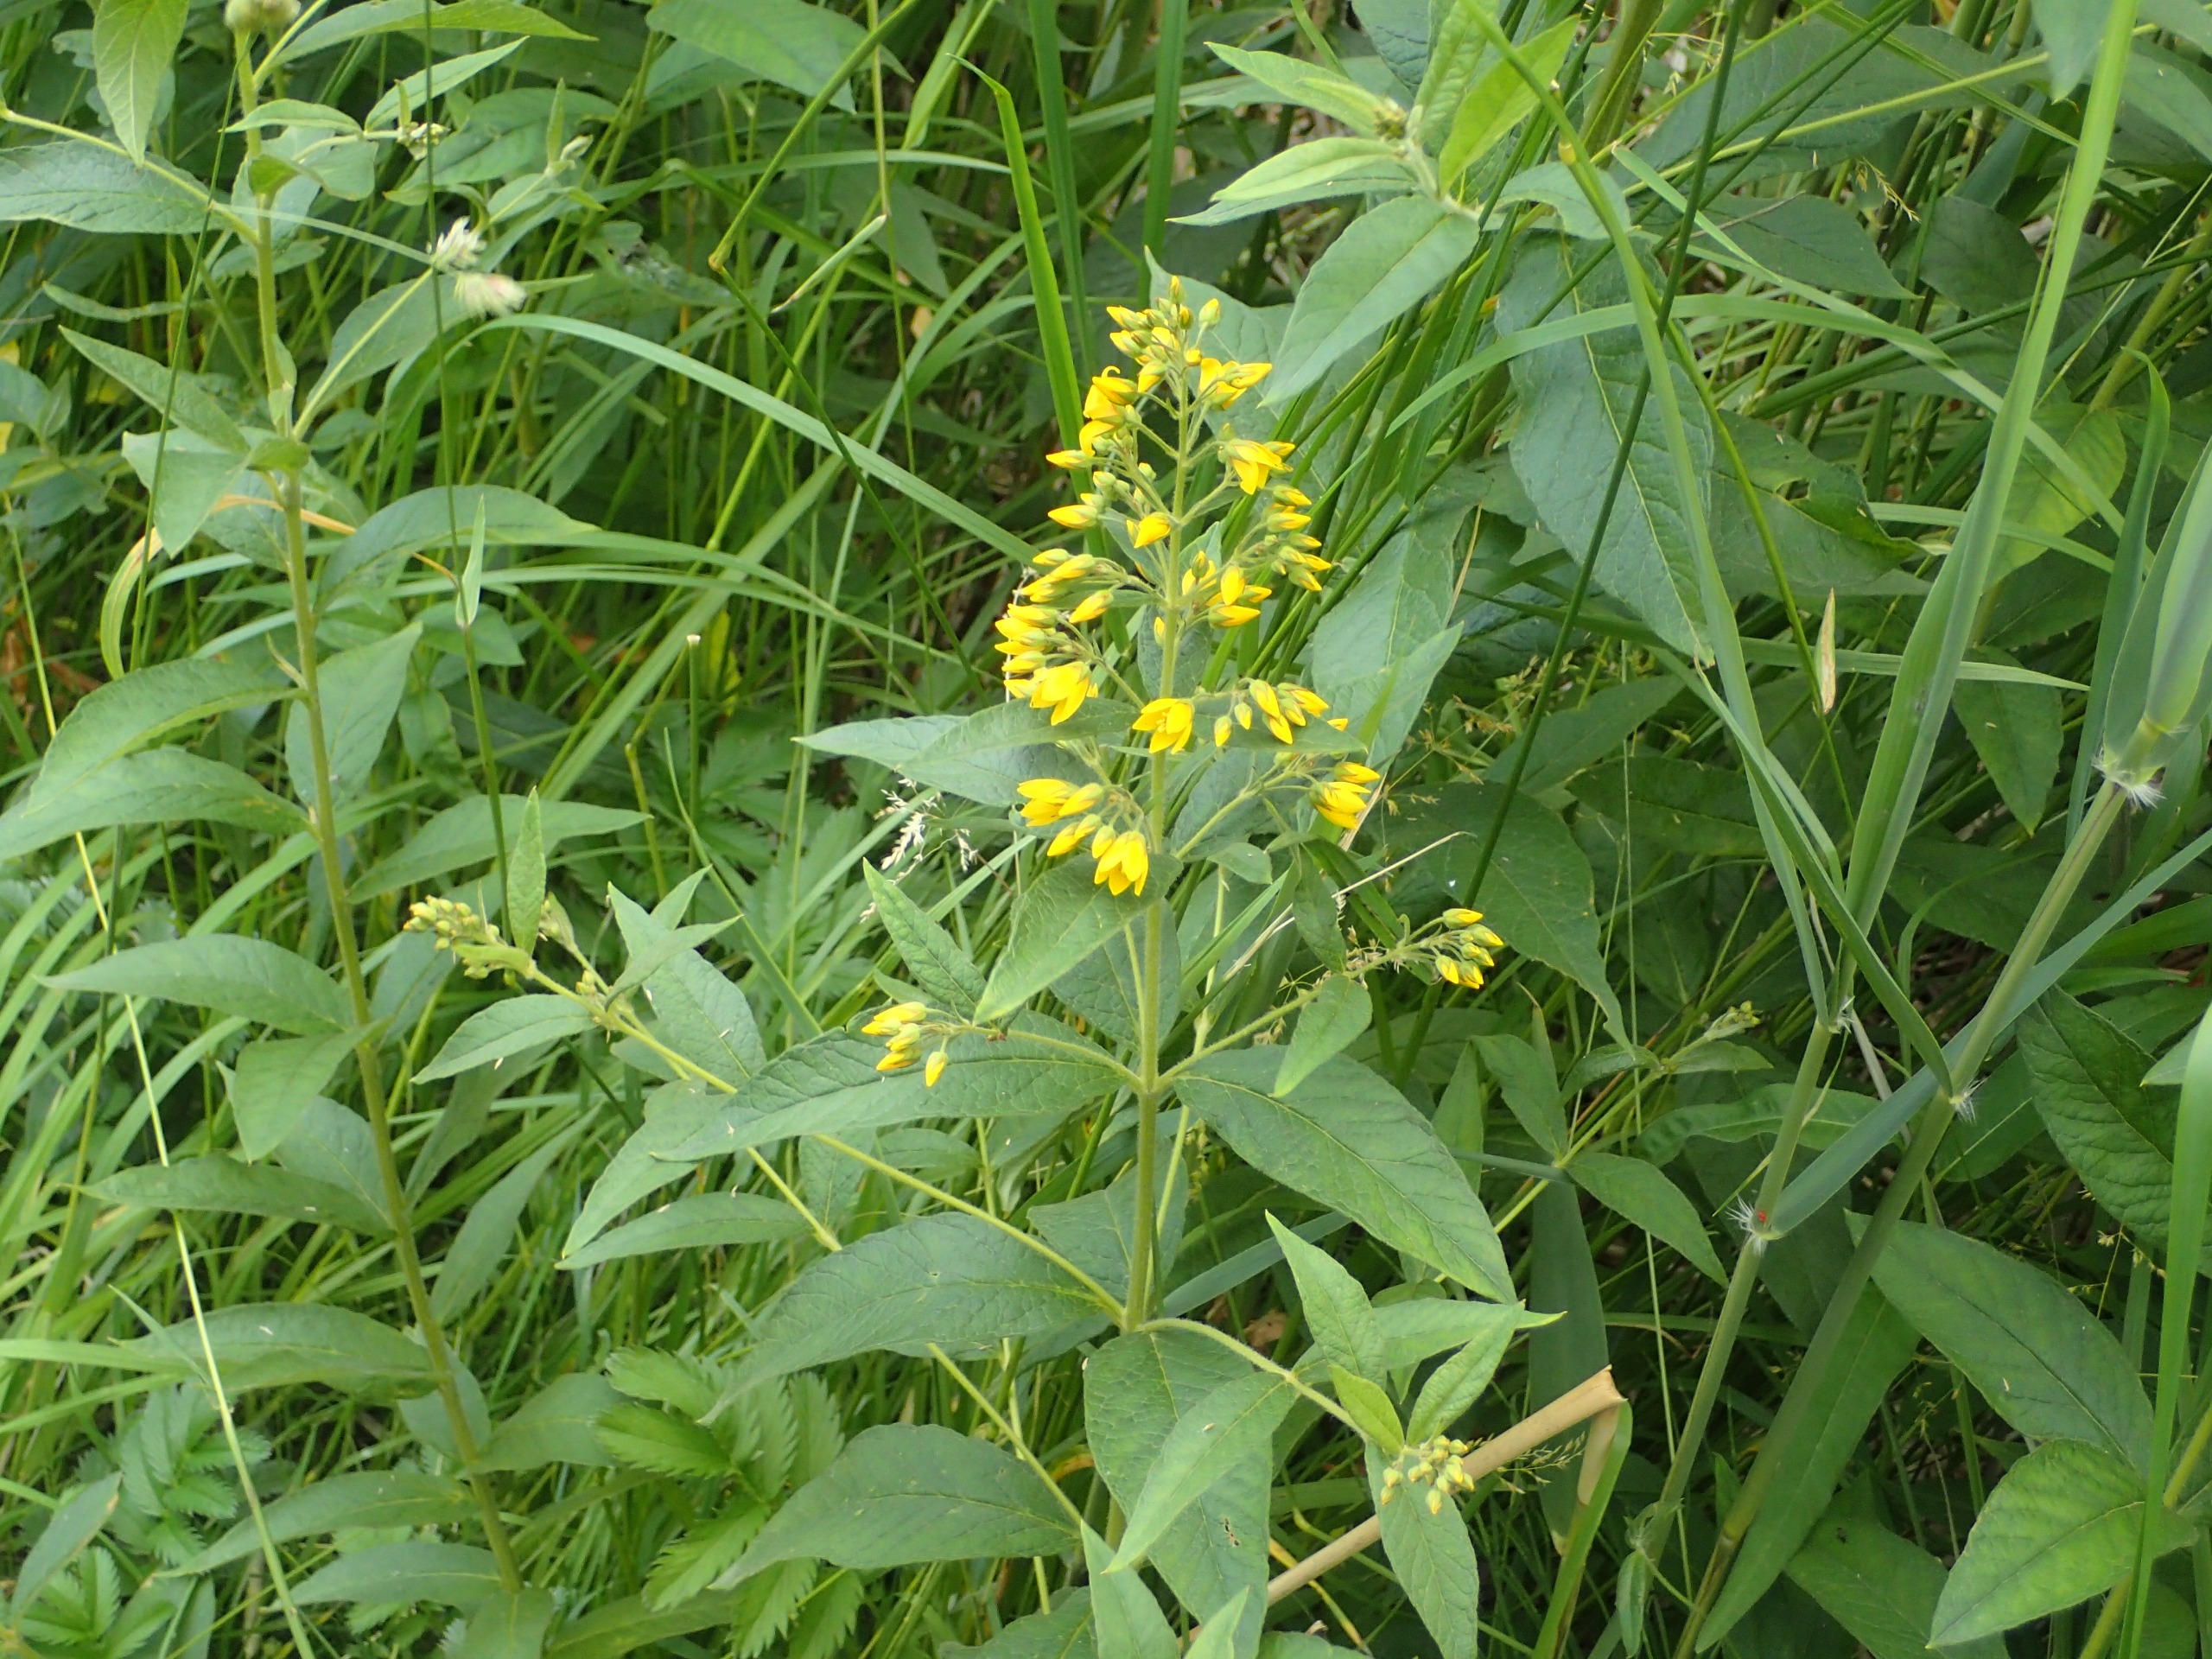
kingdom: Plantae
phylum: Tracheophyta
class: Magnoliopsida
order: Ericales
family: Primulaceae
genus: Lysimachia
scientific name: Lysimachia vulgaris
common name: Almindelig fredløs
